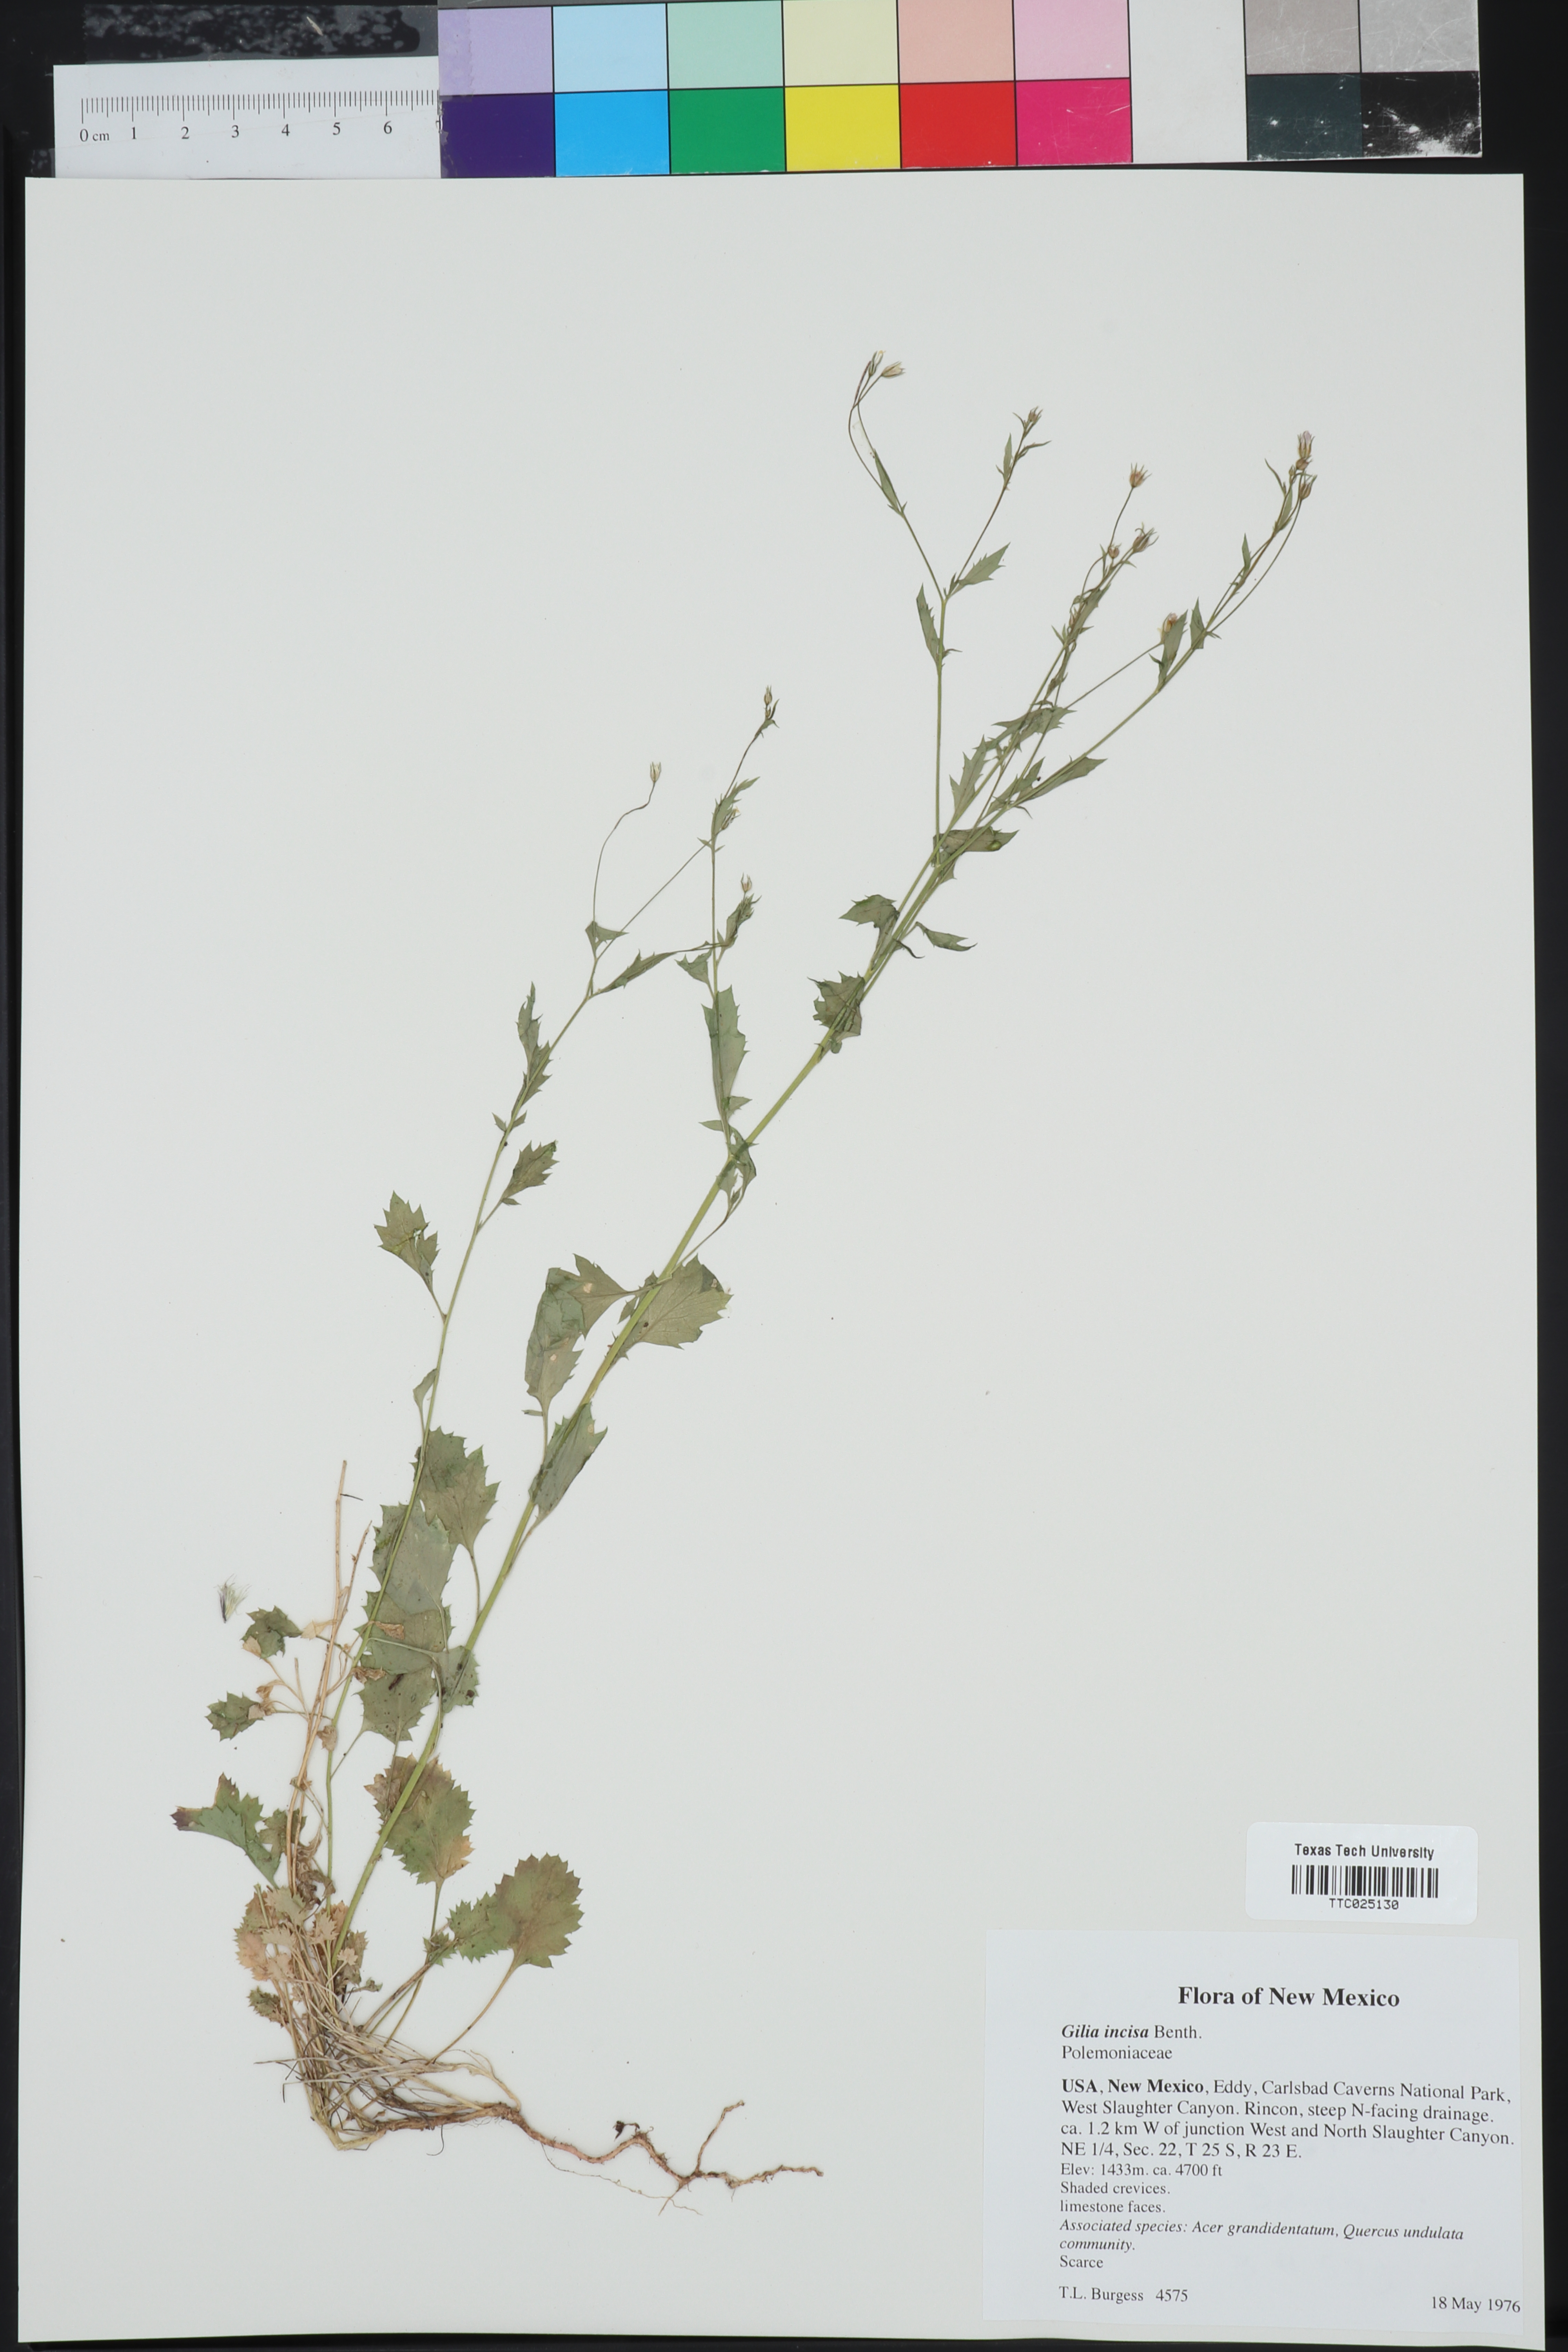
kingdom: Plantae
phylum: Tracheophyta
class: Magnoliopsida
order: Ericales
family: Polemoniaceae
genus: Giliastrum
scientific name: Giliastrum incisum
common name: Splitleaf gilia
